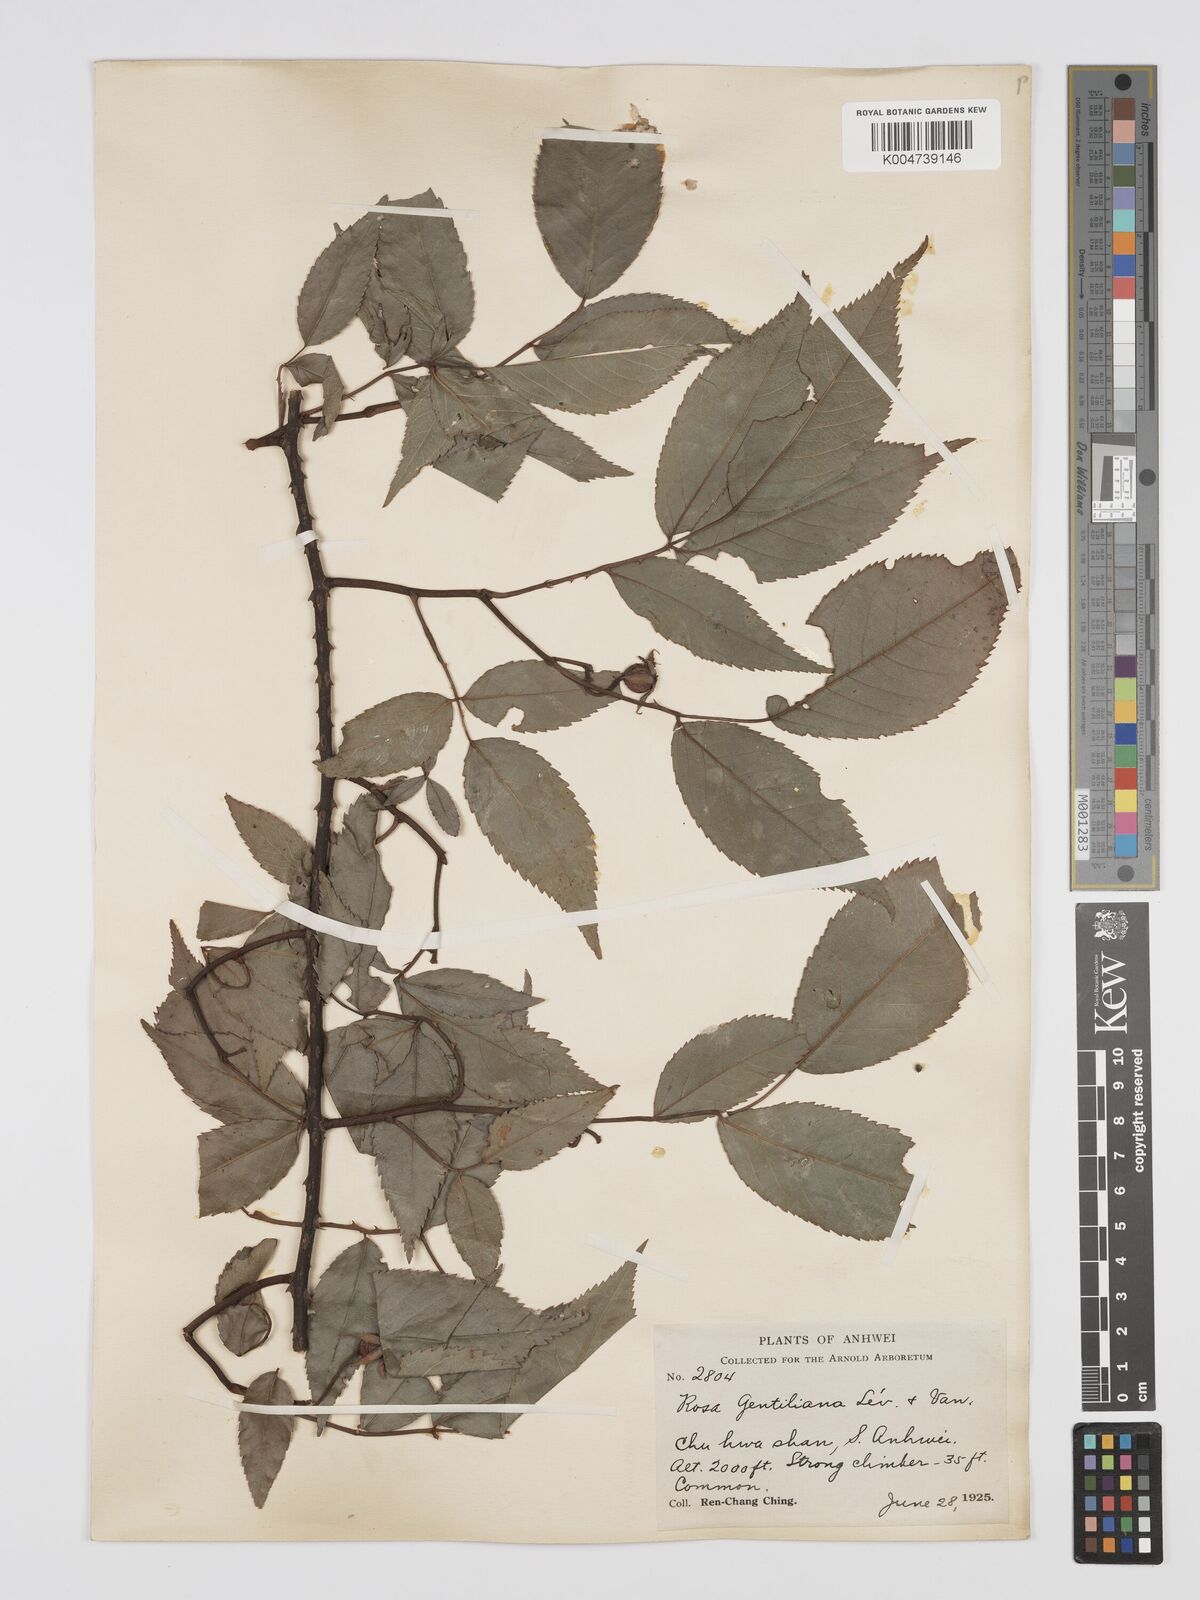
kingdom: Plantae
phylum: Tracheophyta
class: Magnoliopsida
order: Rosales
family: Rosaceae
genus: Rosa
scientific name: Rosa henryi
